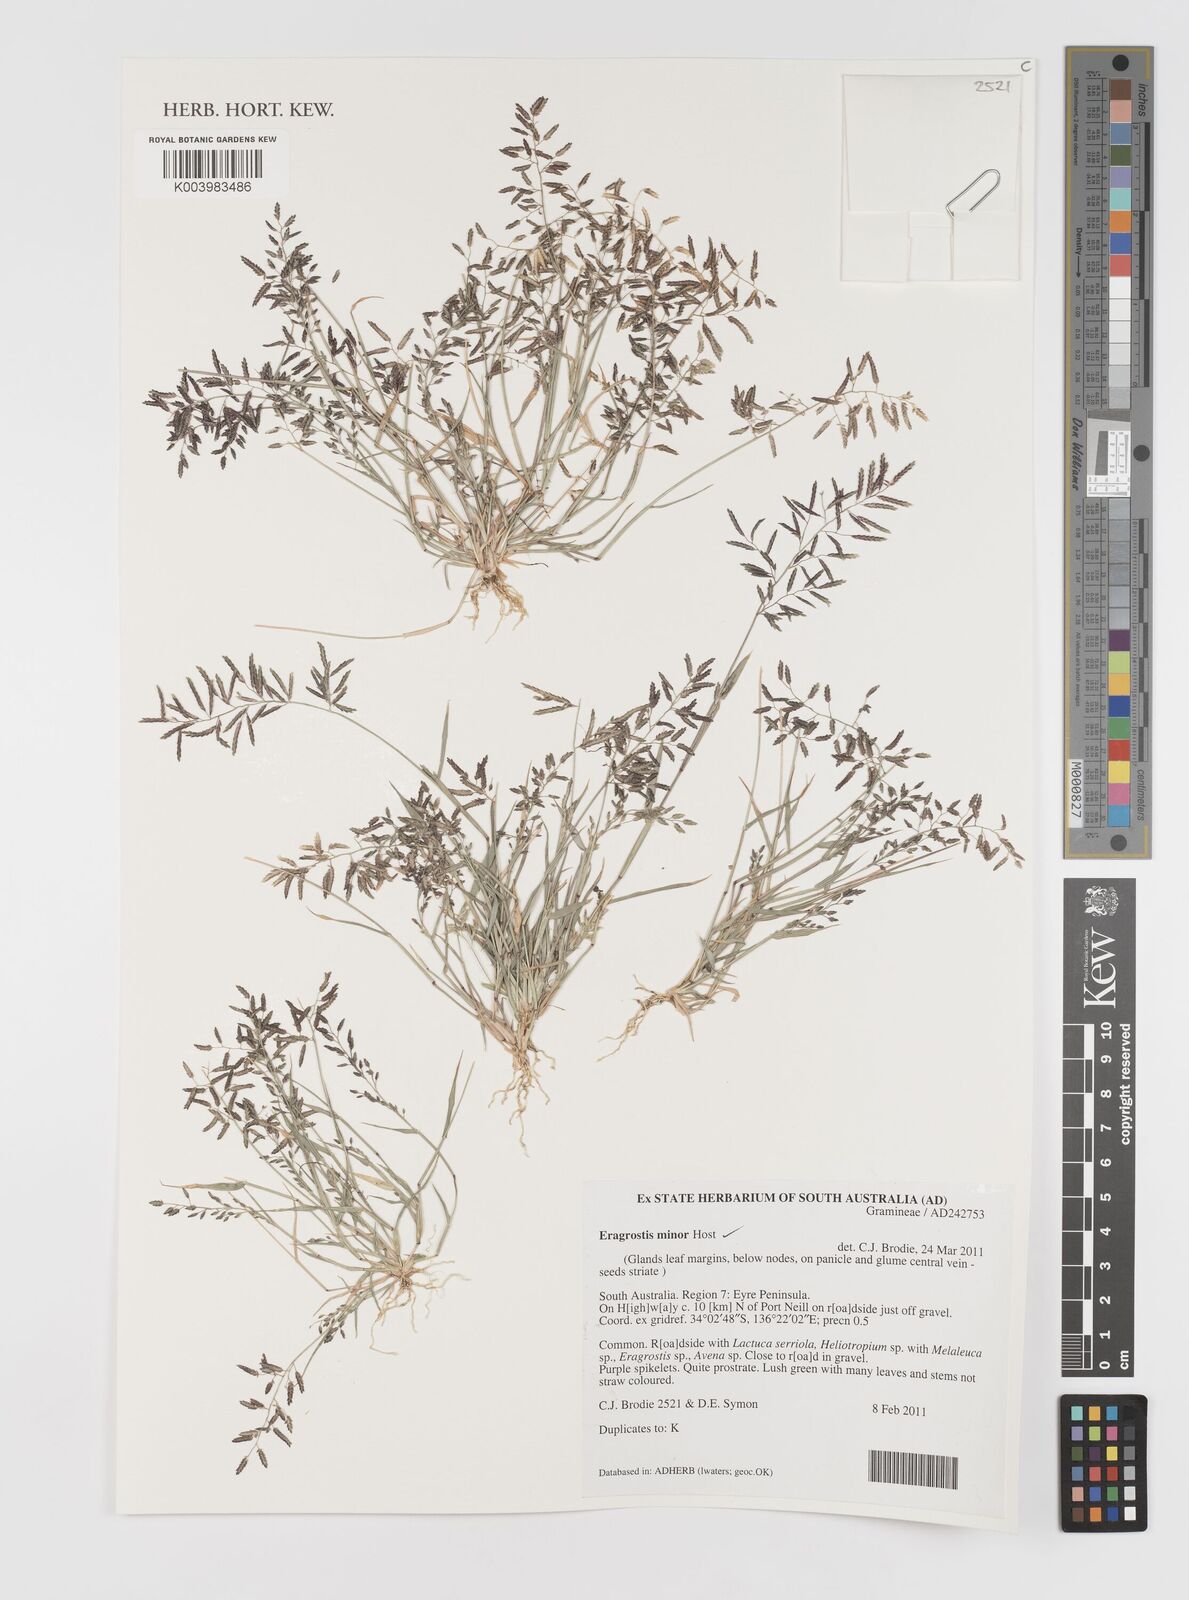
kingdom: Plantae
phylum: Tracheophyta
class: Liliopsida
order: Poales
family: Poaceae
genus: Eragrostis
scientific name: Eragrostis minor
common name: Small love-grass
